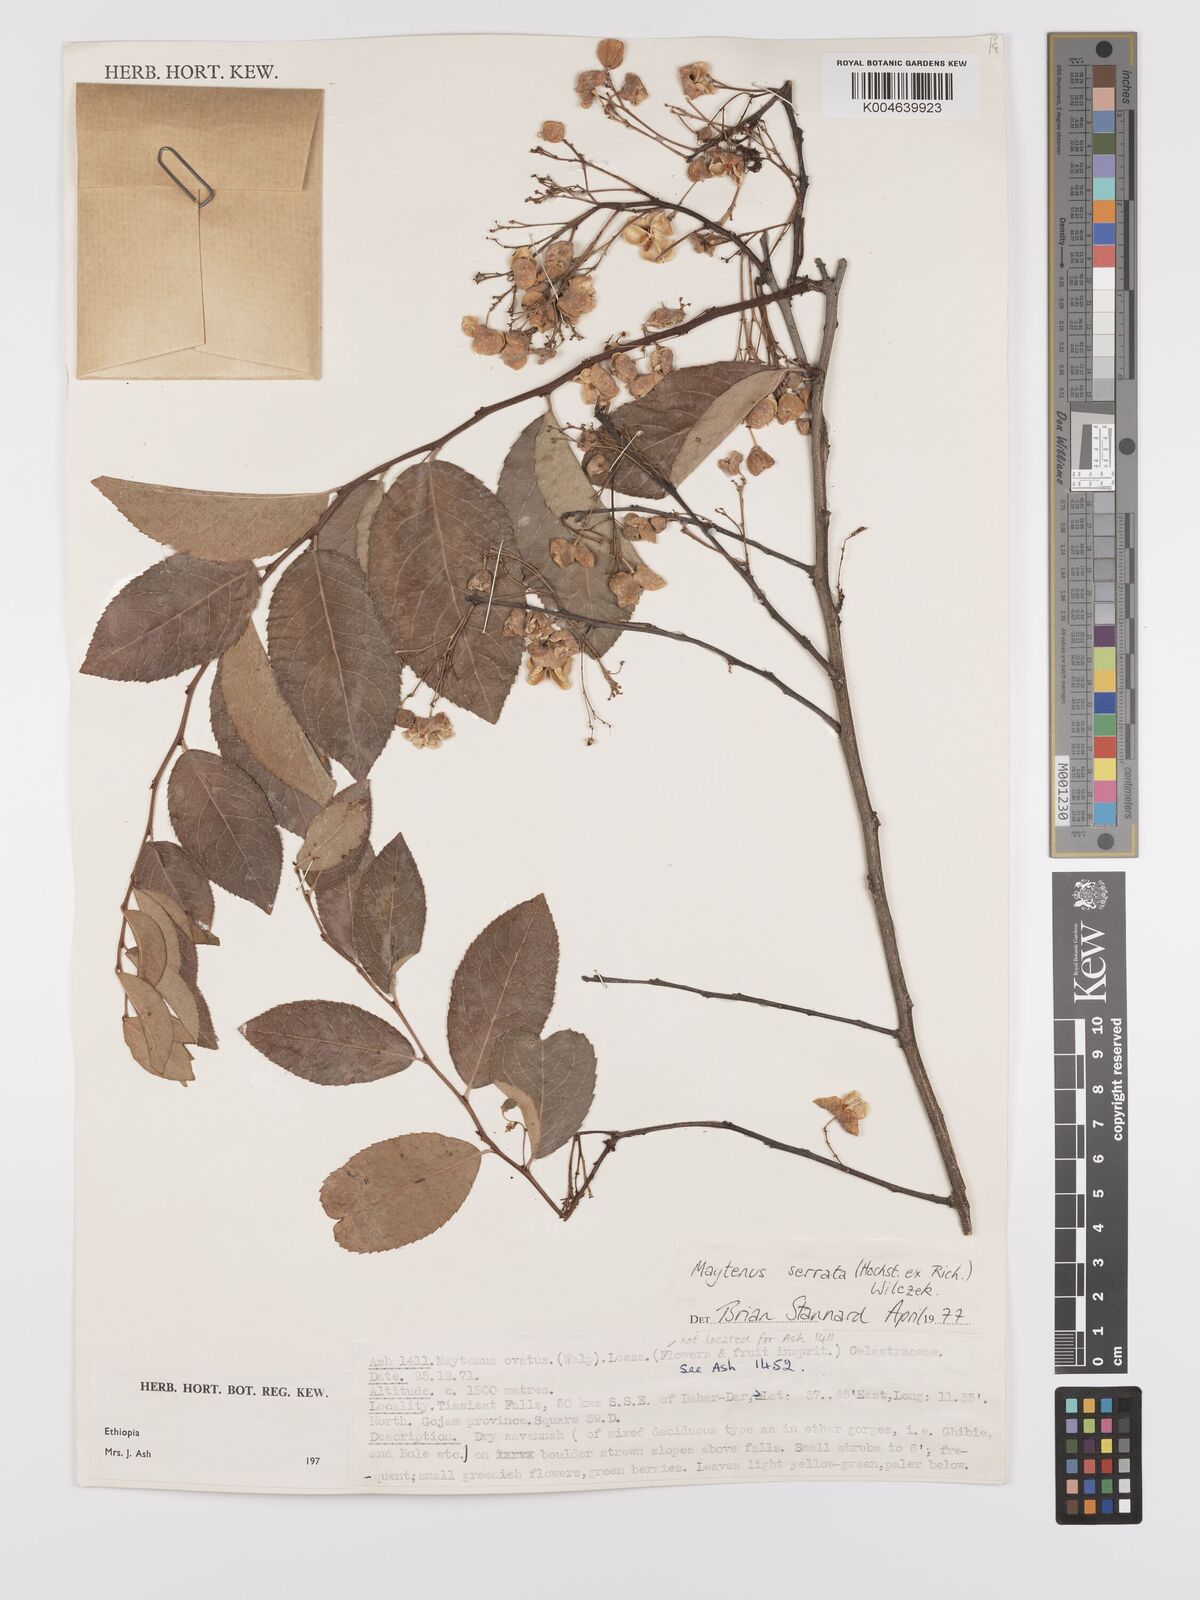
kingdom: Plantae
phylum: Tracheophyta
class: Magnoliopsida
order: Celastrales
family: Celastraceae
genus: Gymnosporia
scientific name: Gymnosporia serrata
